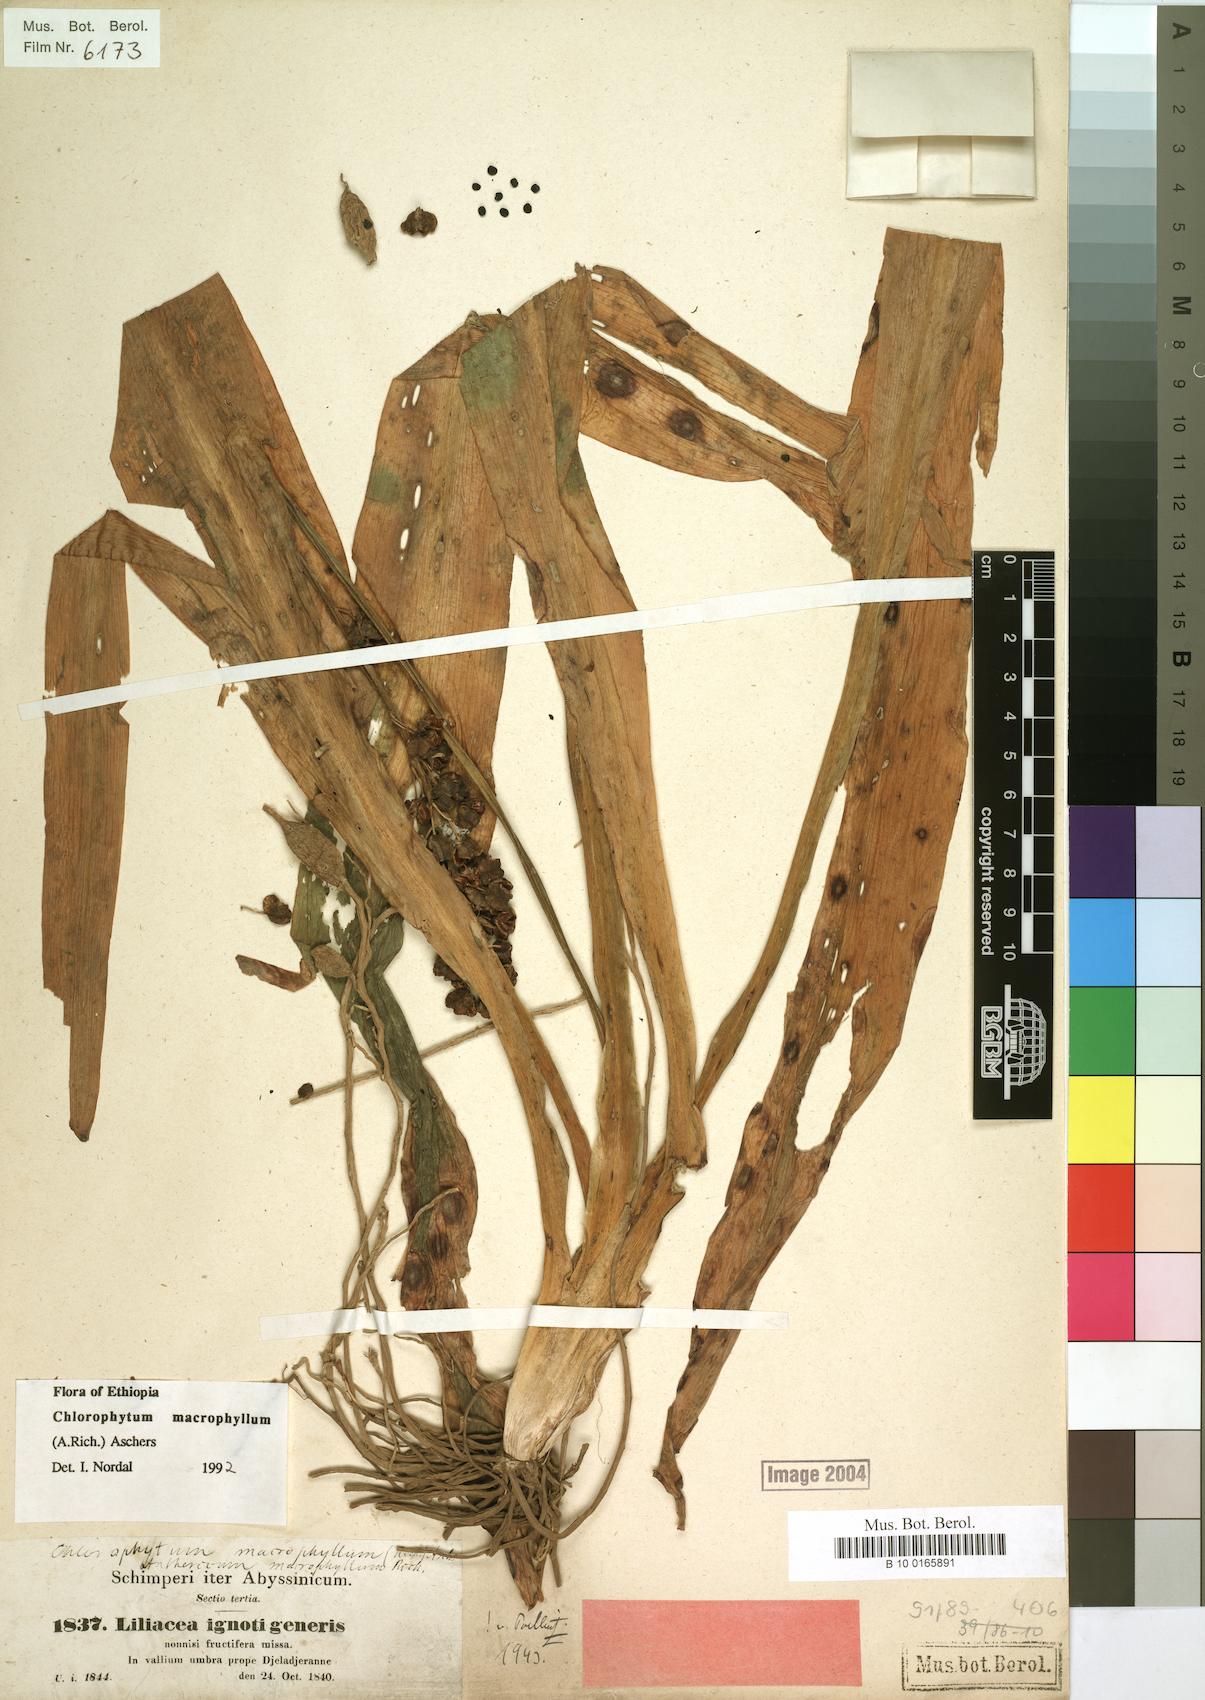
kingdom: Plantae
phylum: Tracheophyta
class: Liliopsida
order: Asparagales
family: Asparagaceae
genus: Chlorophytum
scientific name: Chlorophytum macrophyllum
